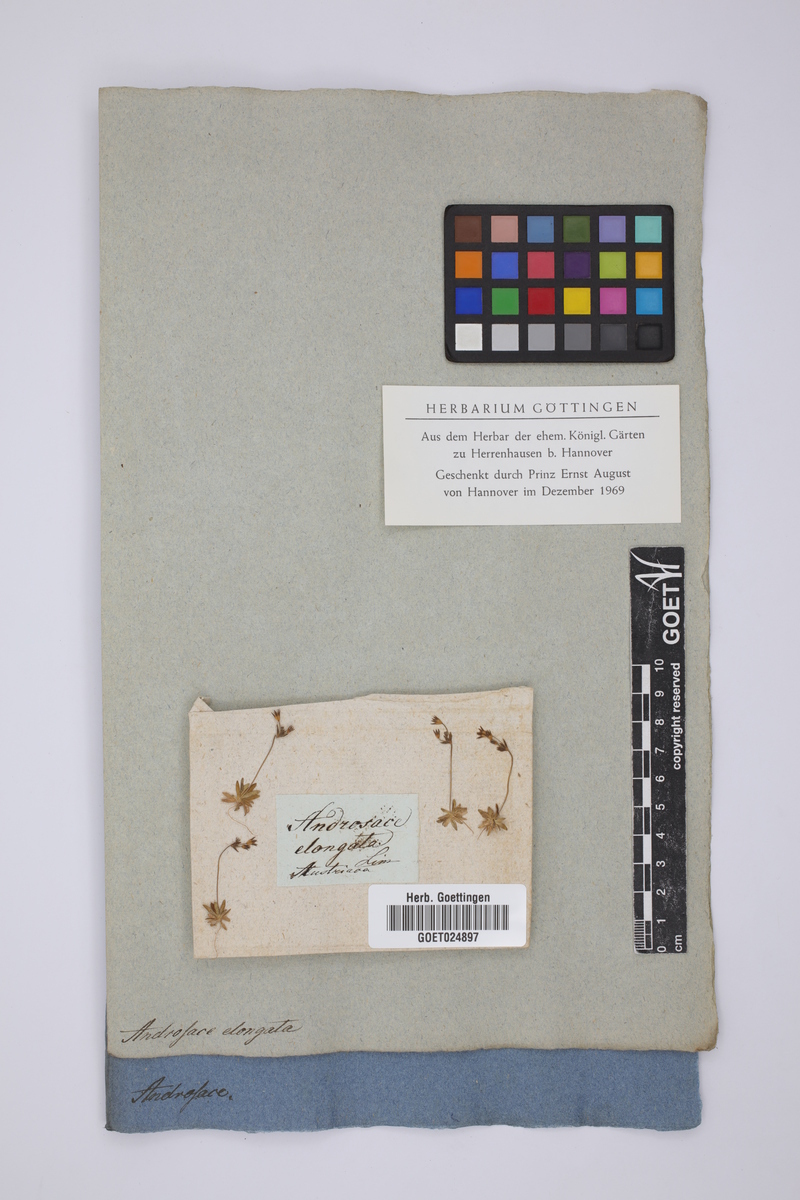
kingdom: Plantae
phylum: Tracheophyta
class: Magnoliopsida
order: Ericales
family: Primulaceae
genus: Androsace
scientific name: Androsace elongata
